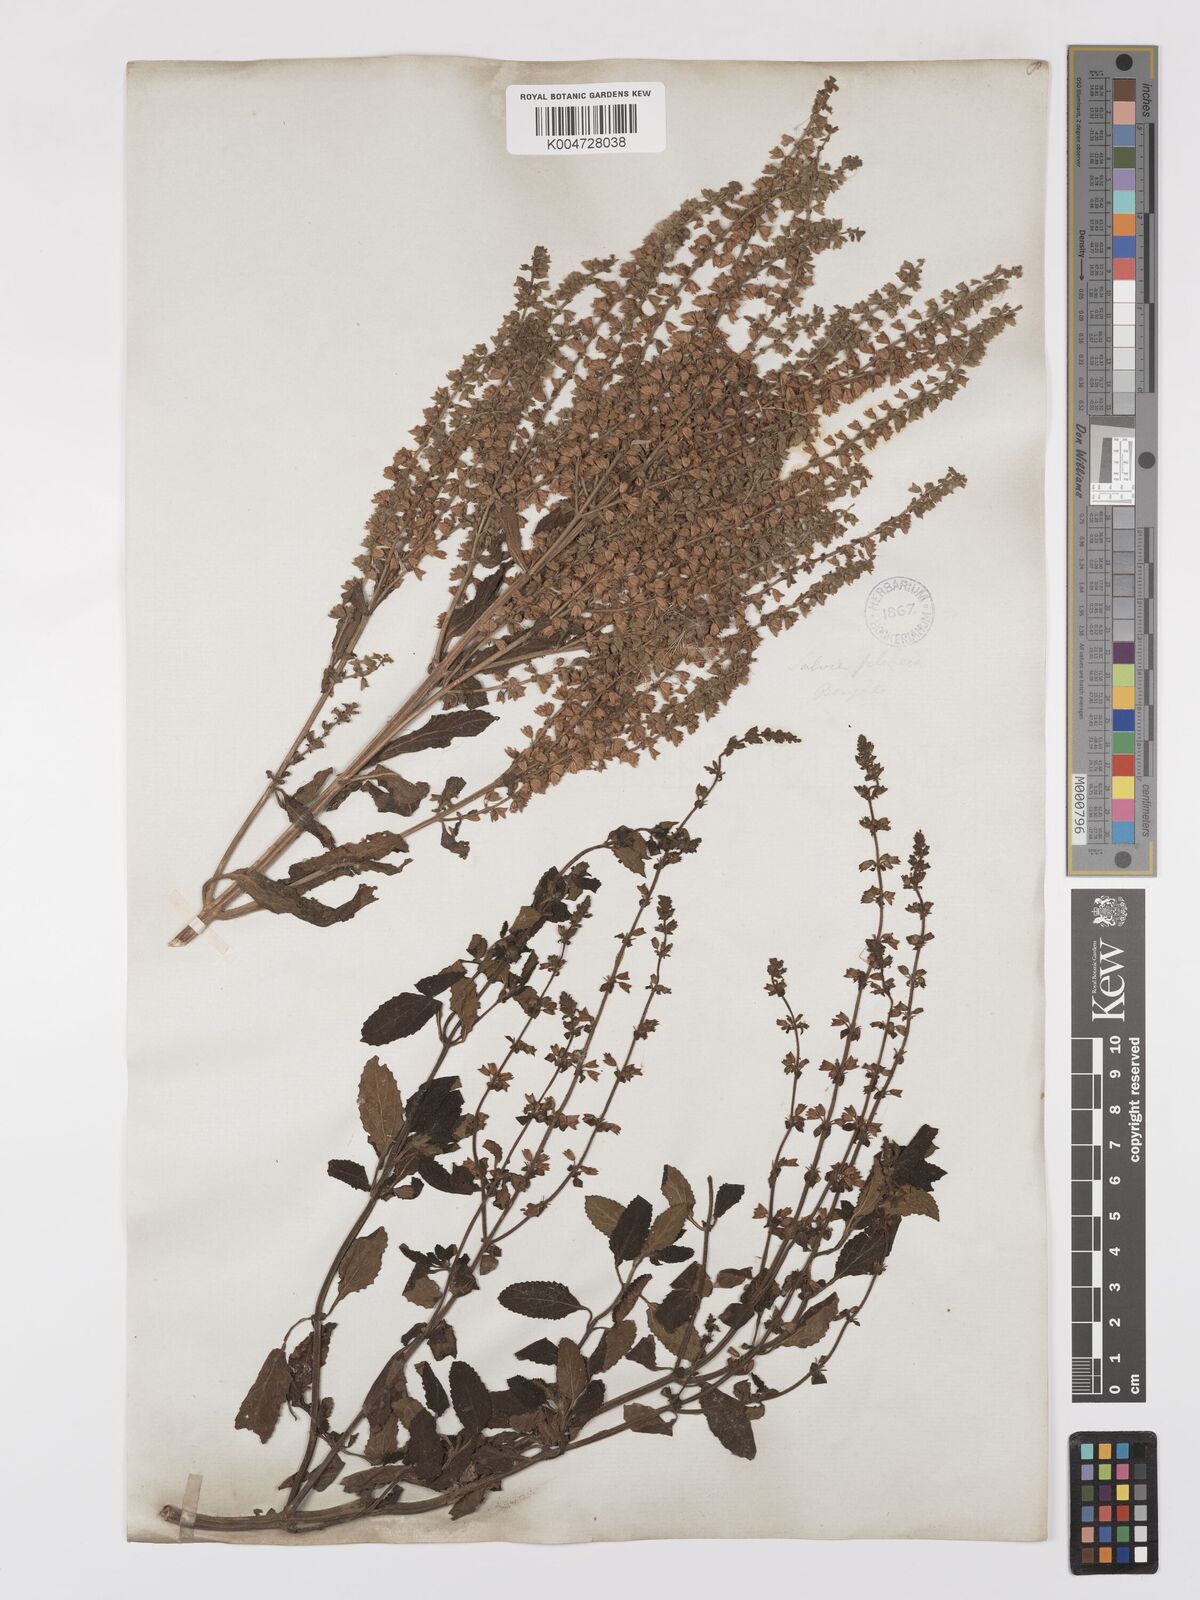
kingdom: Plantae
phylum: Tracheophyta
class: Magnoliopsida
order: Lamiales
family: Lamiaceae
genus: Salvia
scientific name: Salvia plebeia
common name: Australian sage
